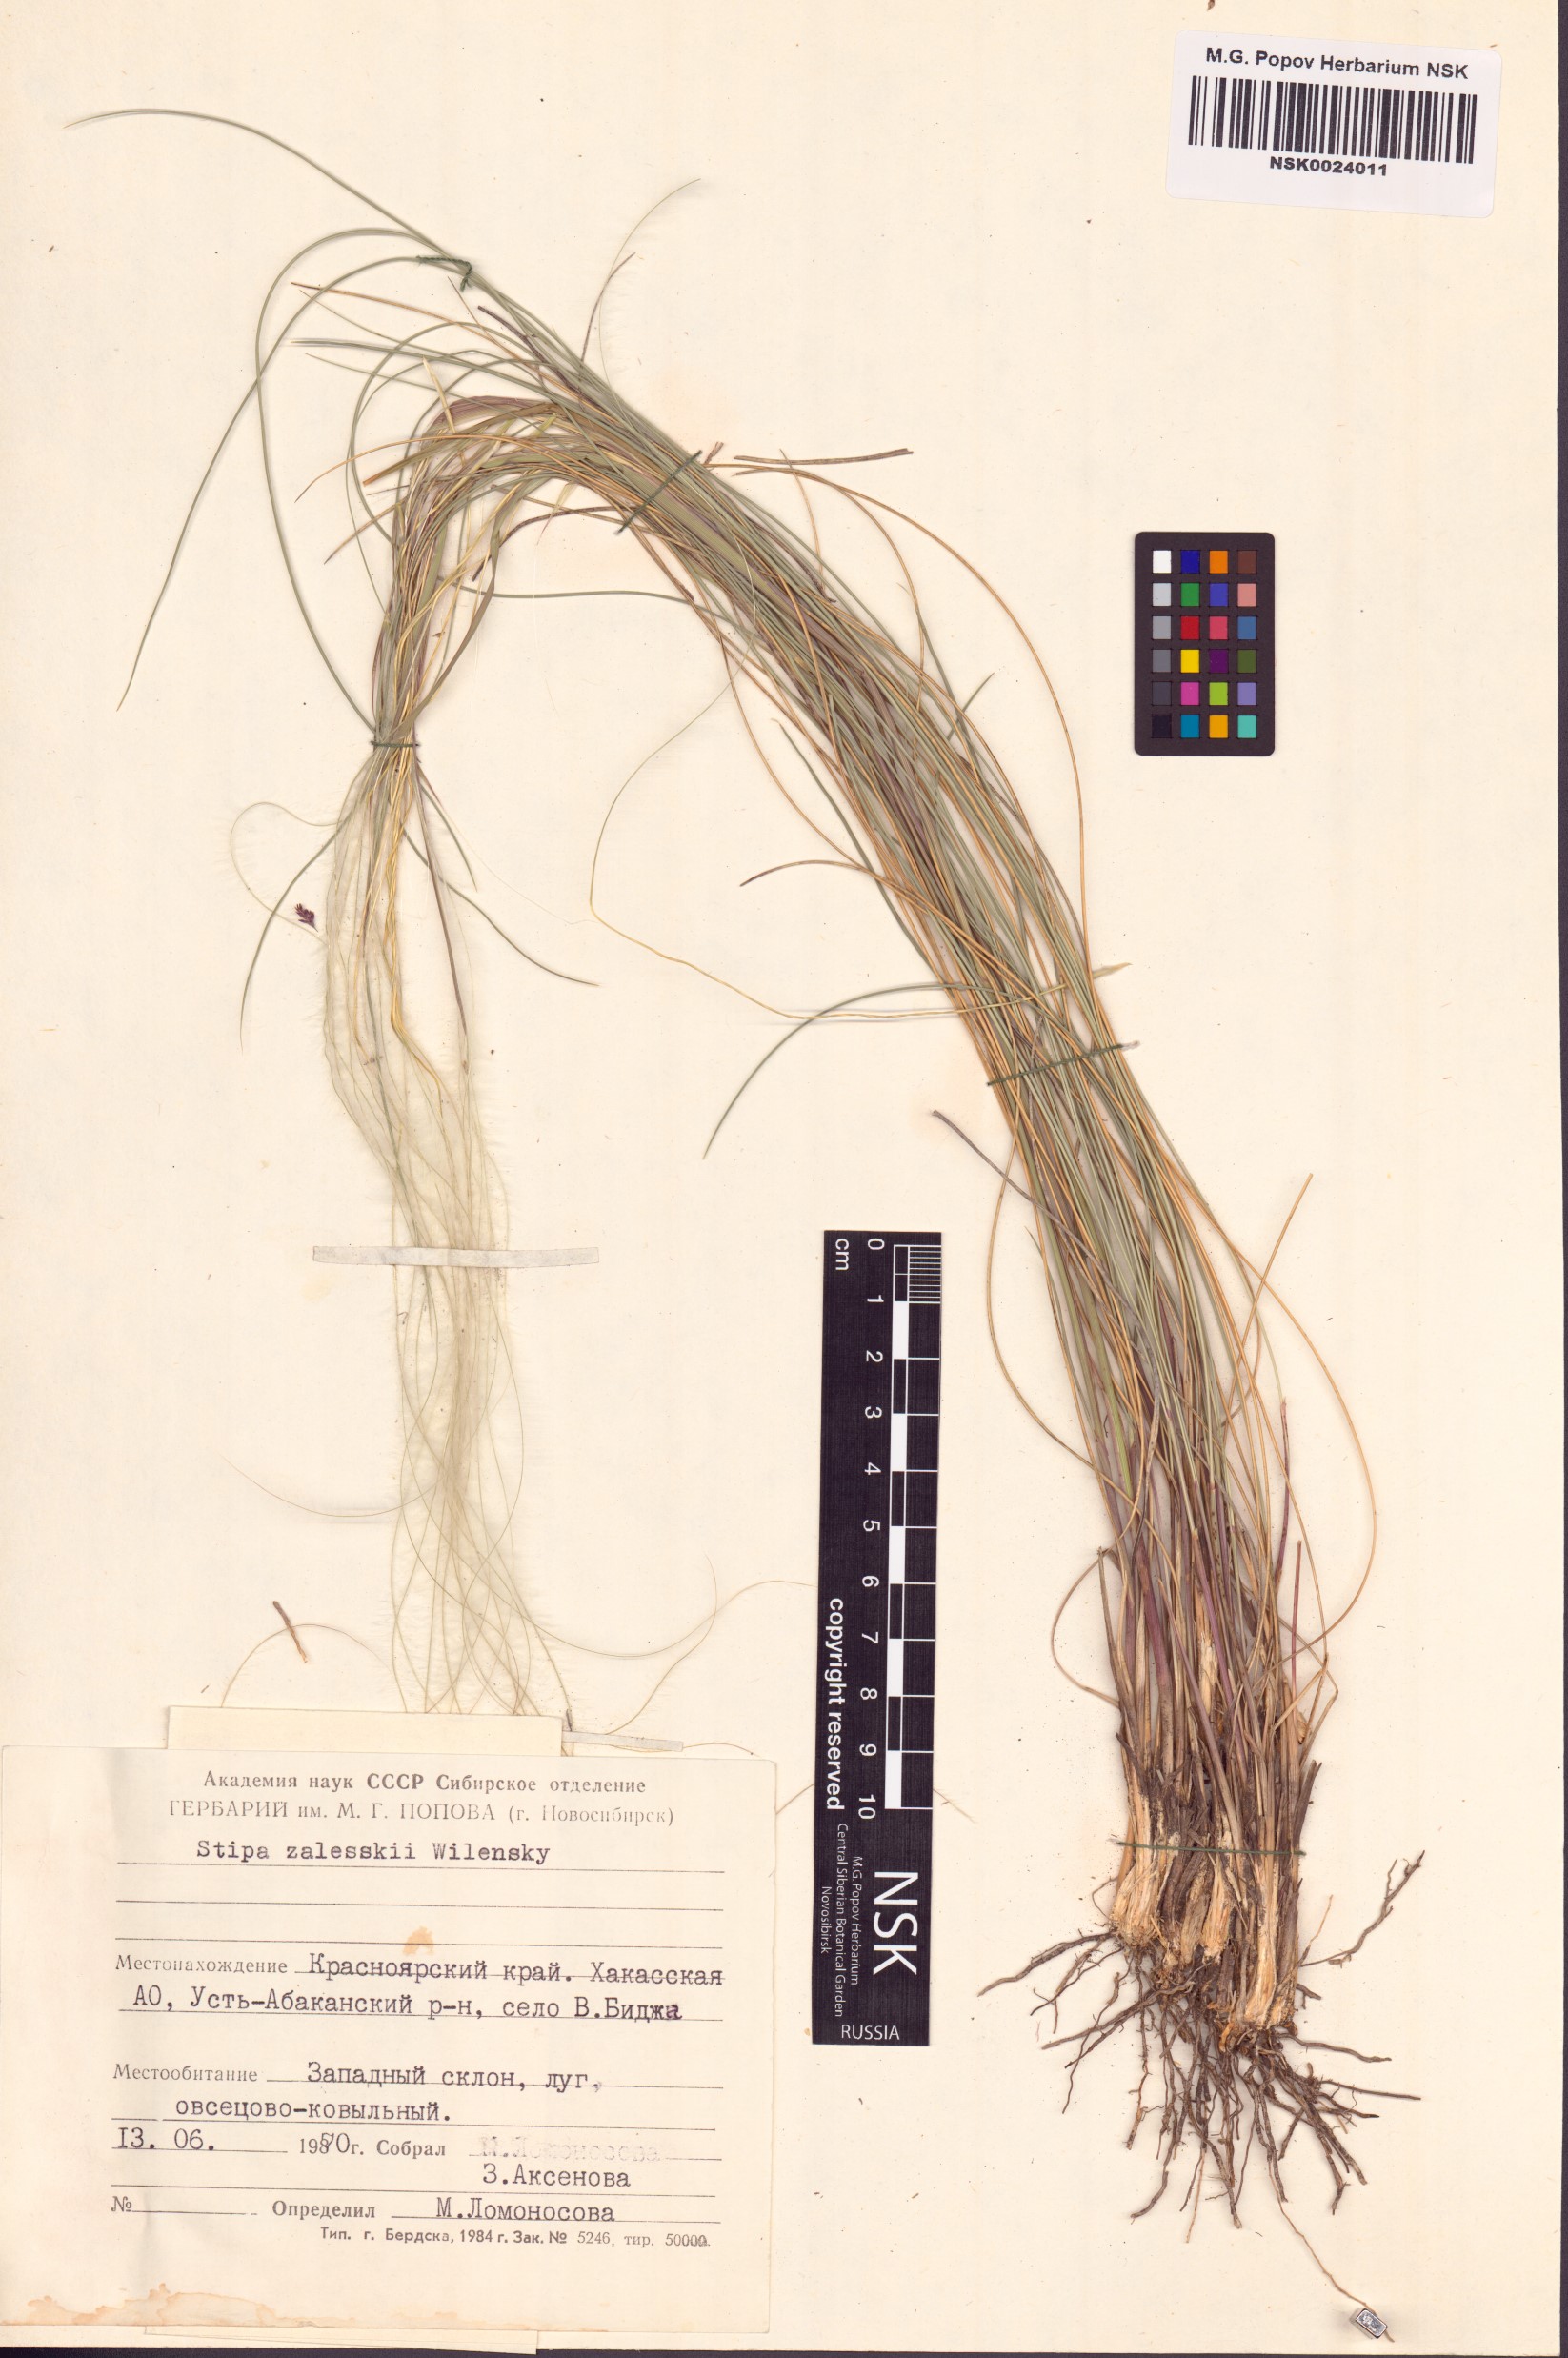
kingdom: Plantae
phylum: Tracheophyta
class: Liliopsida
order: Poales
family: Poaceae
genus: Stipa
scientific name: Stipa zalesskii
